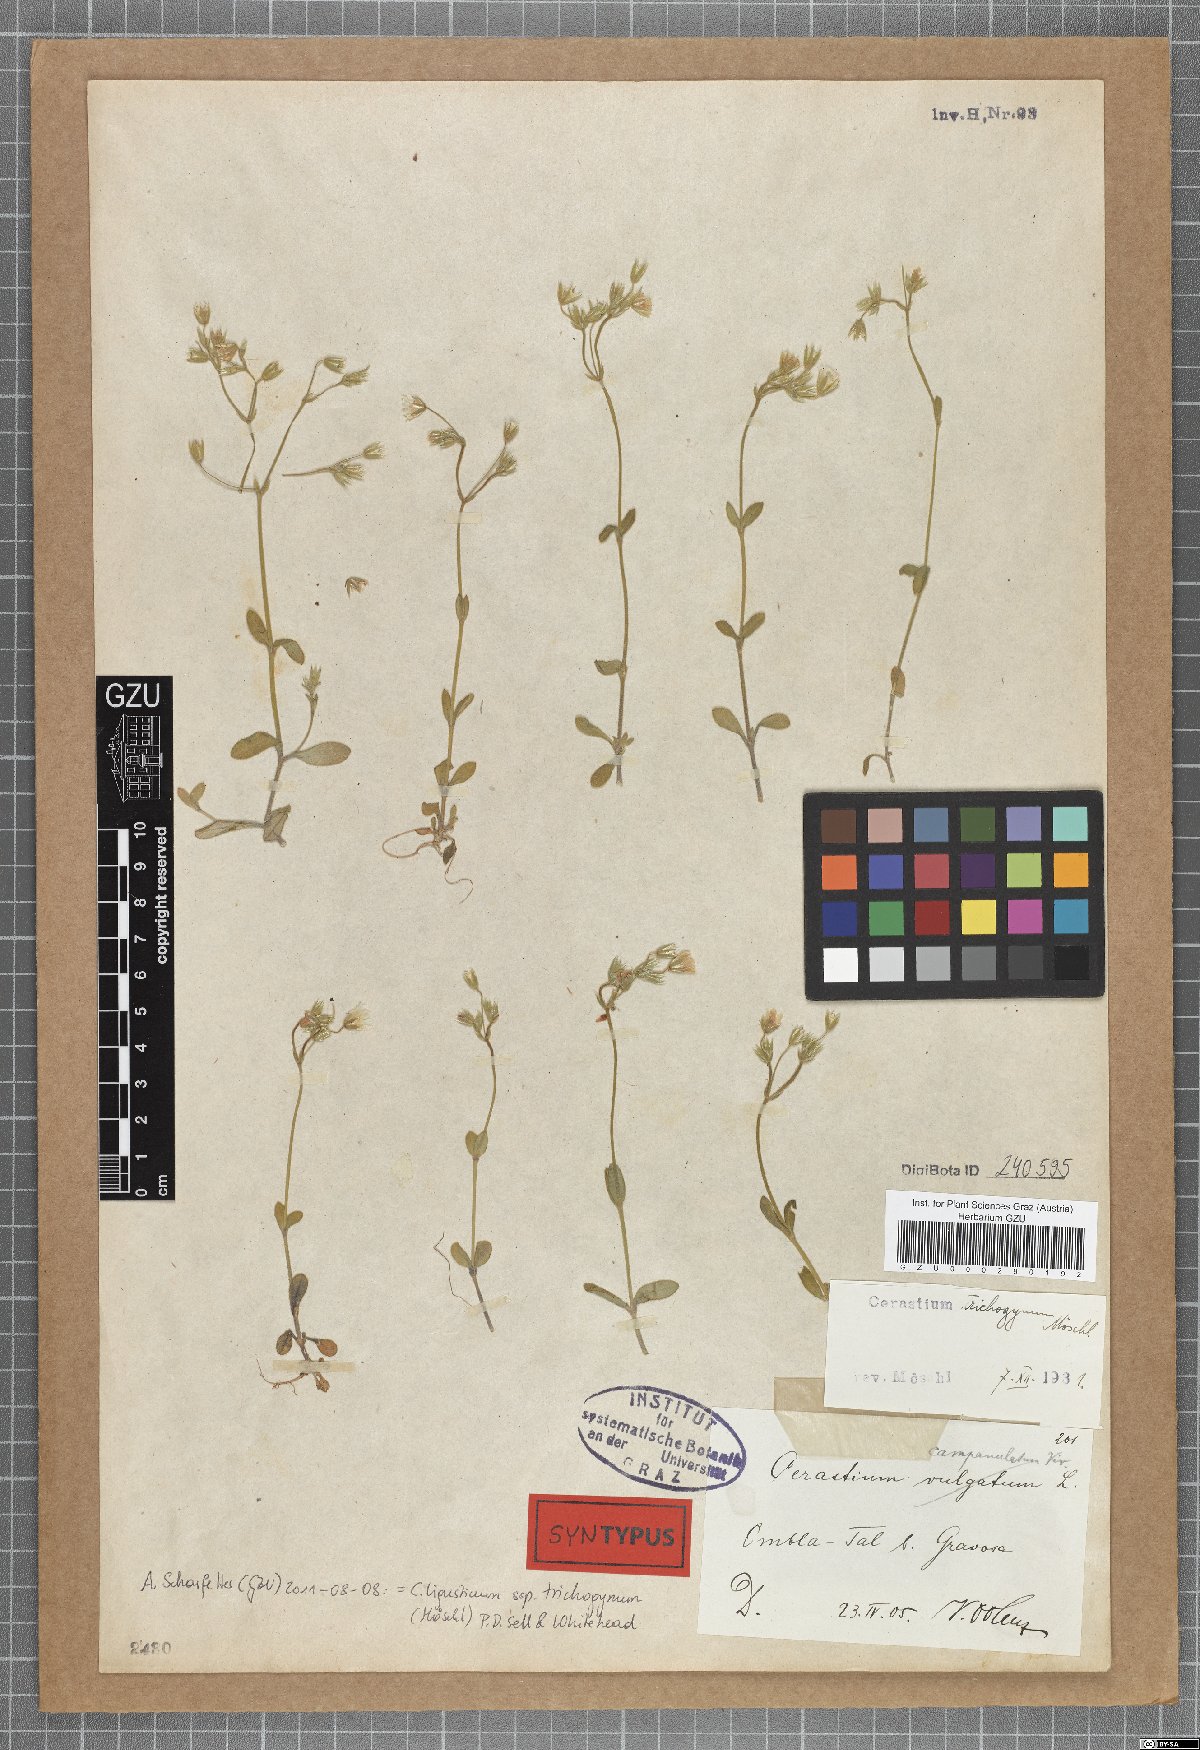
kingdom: Plantae
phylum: Tracheophyta
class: Magnoliopsida
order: Caryophyllales
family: Caryophyllaceae
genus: Cerastium
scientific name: Cerastium ligusticum
